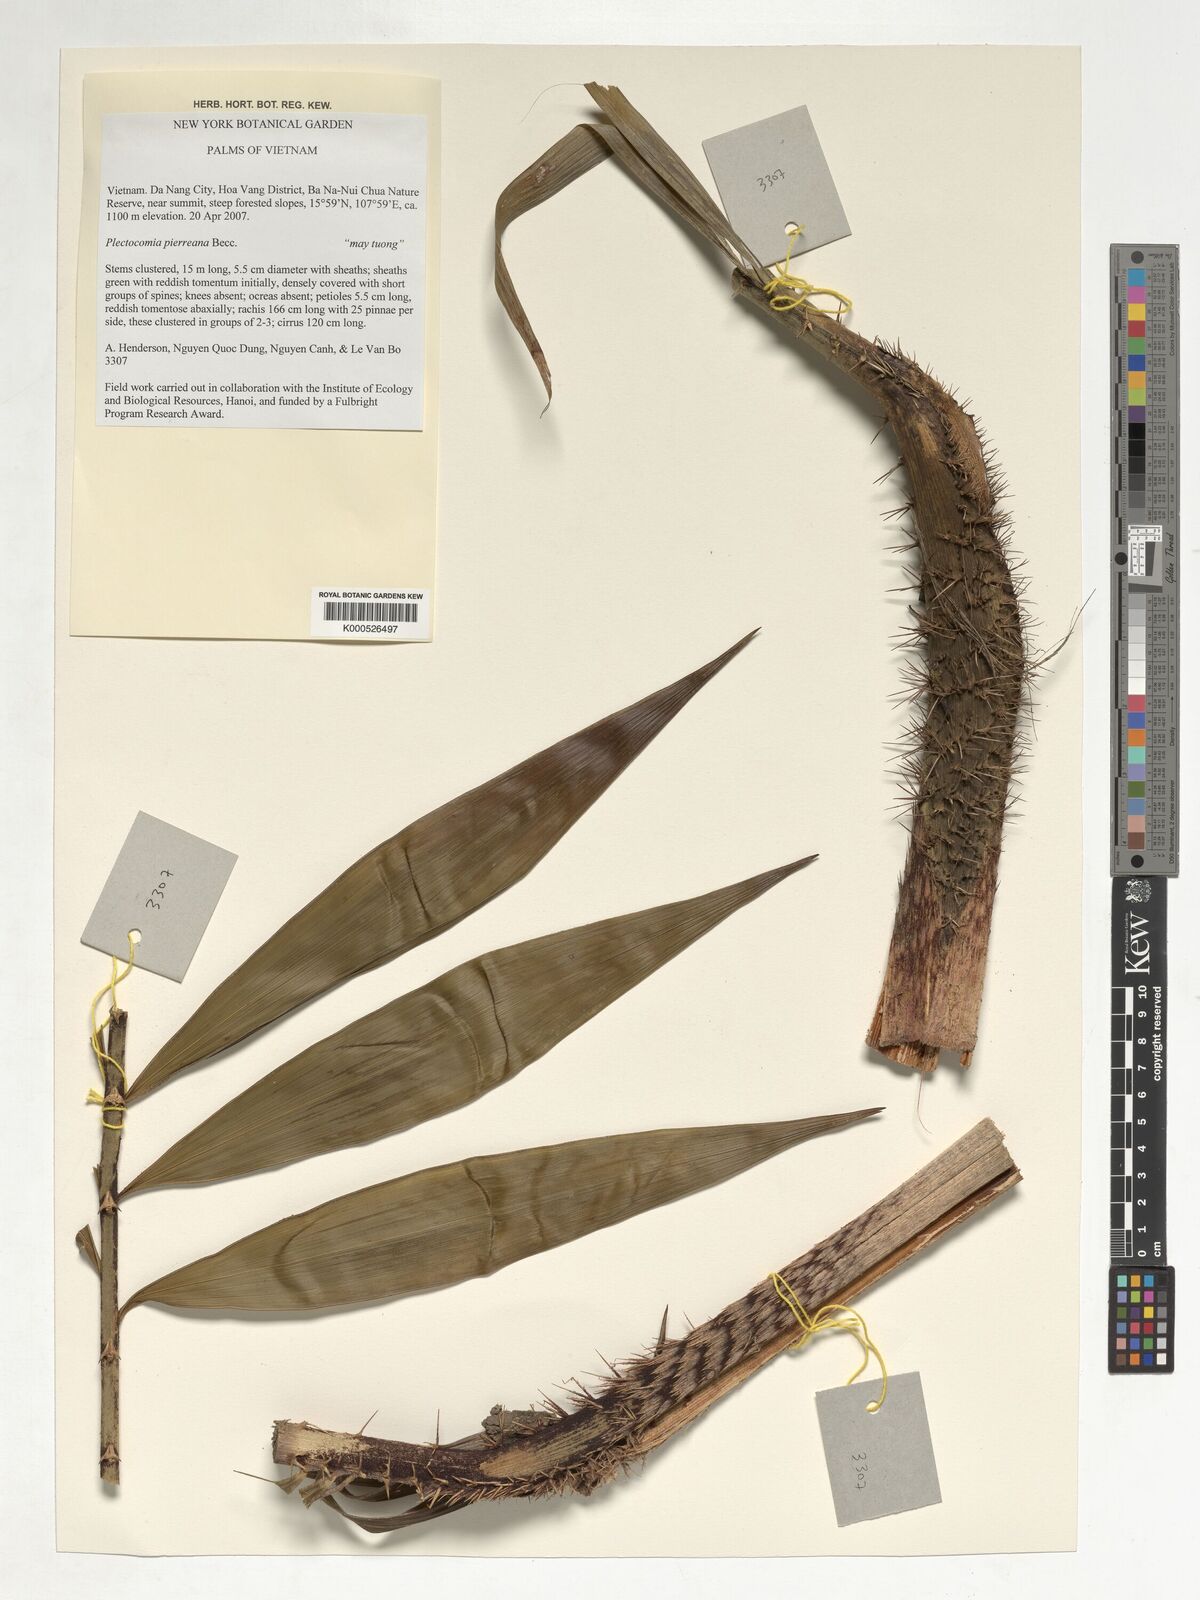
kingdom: Plantae
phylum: Tracheophyta
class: Liliopsida
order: Arecales
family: Arecaceae
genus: Plectocomia
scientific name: Plectocomia pierreana
